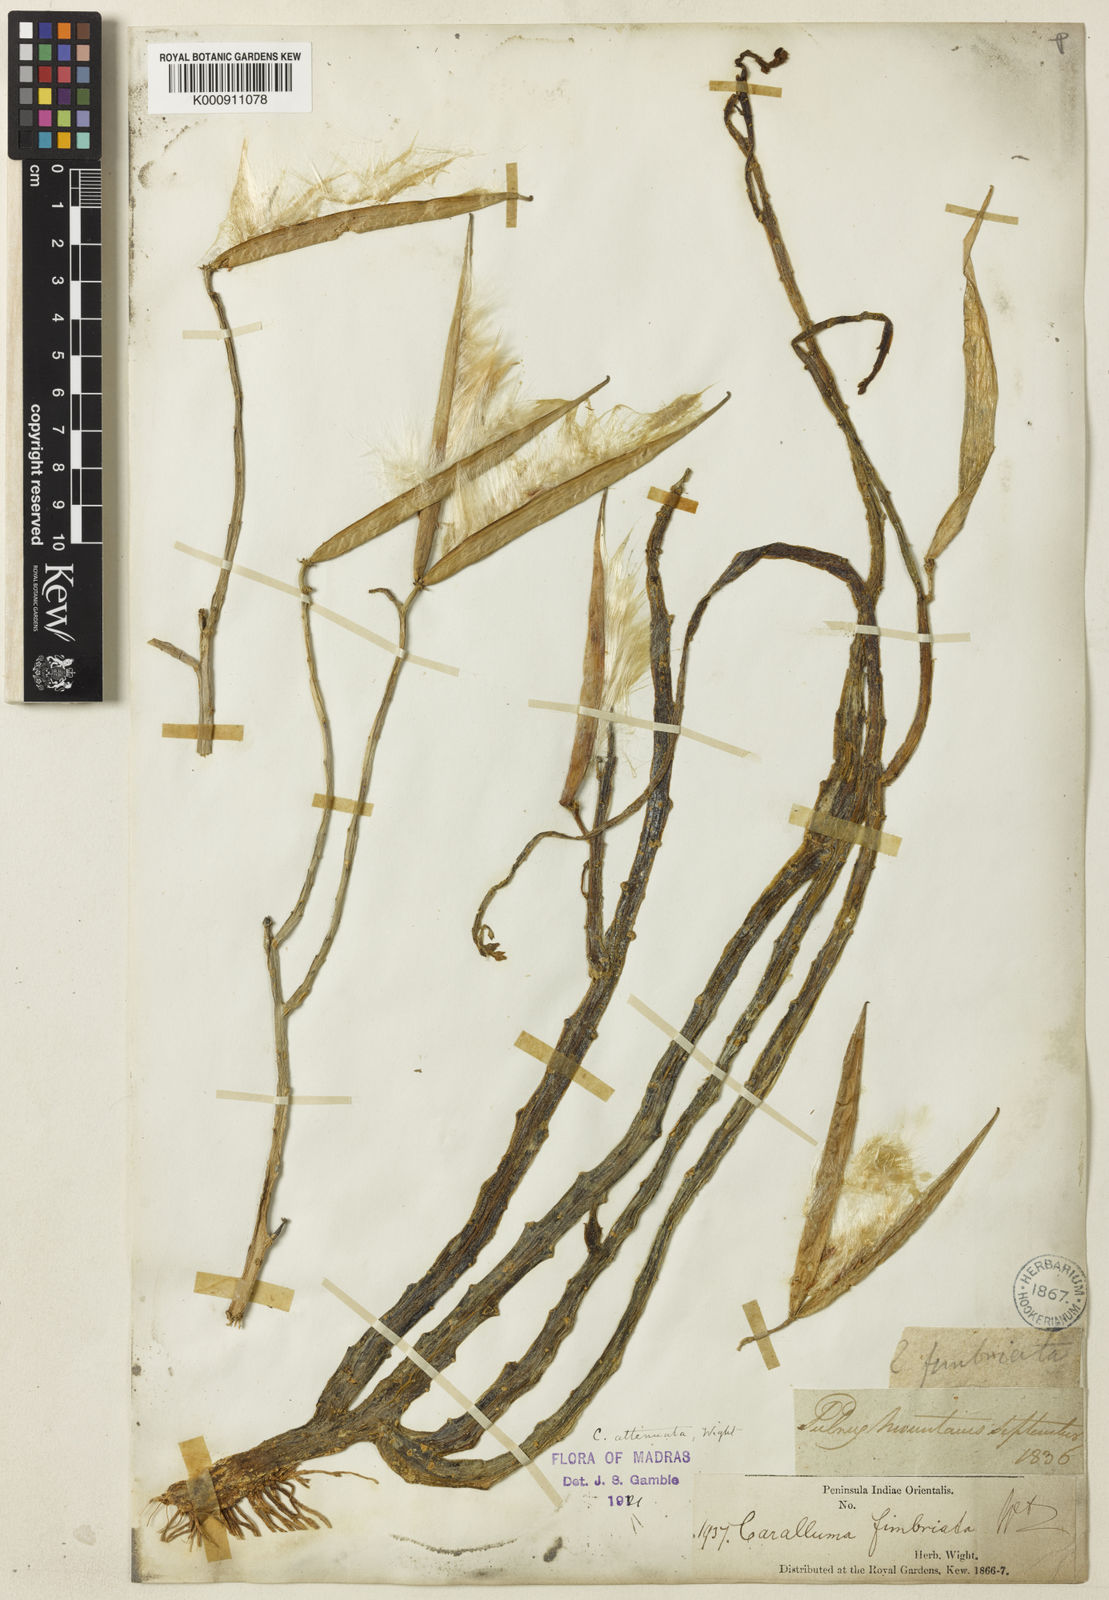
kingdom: Plantae
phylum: Tracheophyta
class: Magnoliopsida
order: Gentianales
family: Apocynaceae
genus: Ceropegia
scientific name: Ceropegia adscendens
